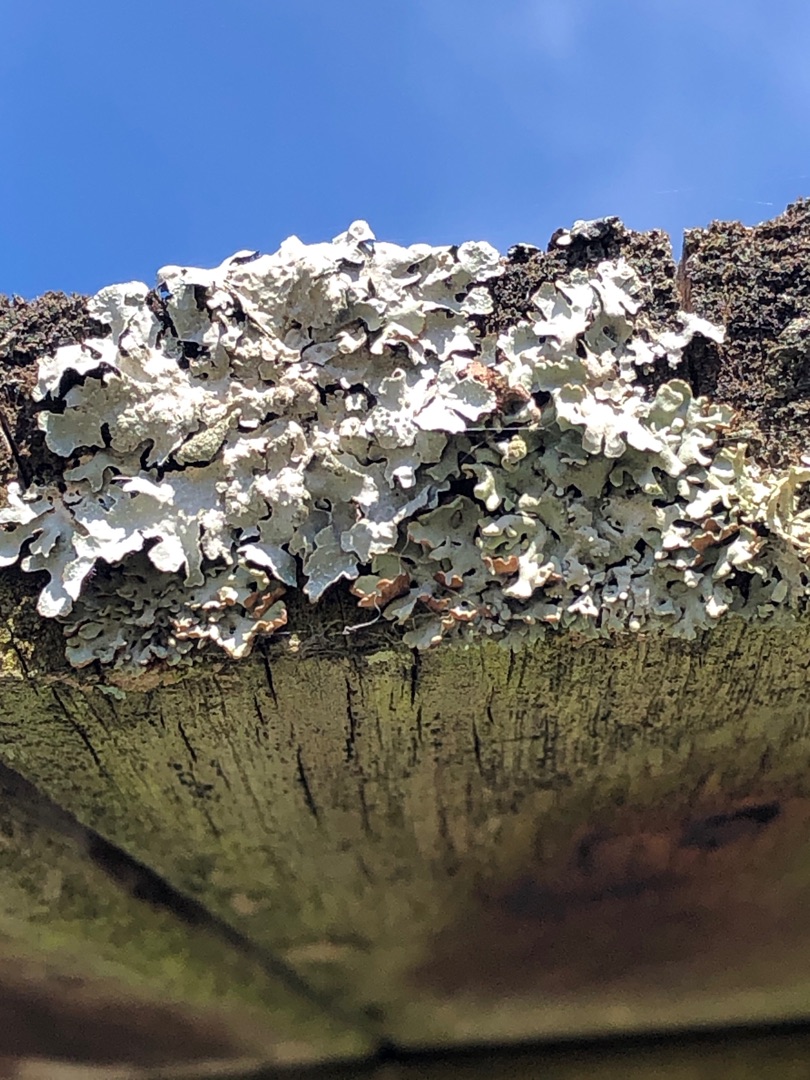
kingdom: Fungi
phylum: Ascomycota
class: Lecanoromycetes
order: Lecanorales
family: Parmeliaceae
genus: Parmelia
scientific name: Parmelia sulcata
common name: Rynket skållav
